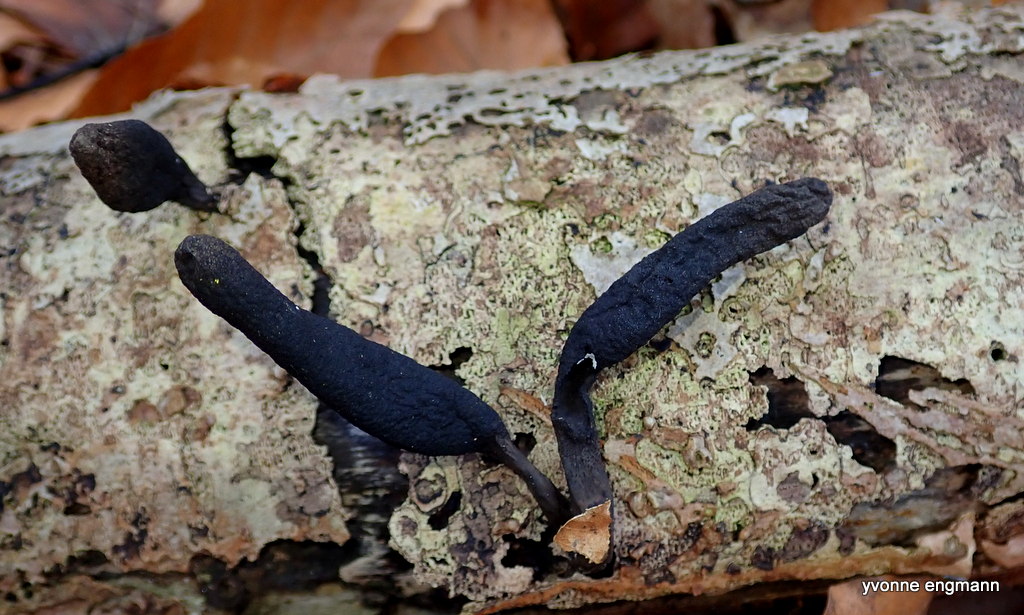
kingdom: Fungi
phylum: Ascomycota
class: Sordariomycetes
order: Xylariales
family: Xylariaceae
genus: Xylaria
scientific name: Xylaria longipes
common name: slank stødsvamp
